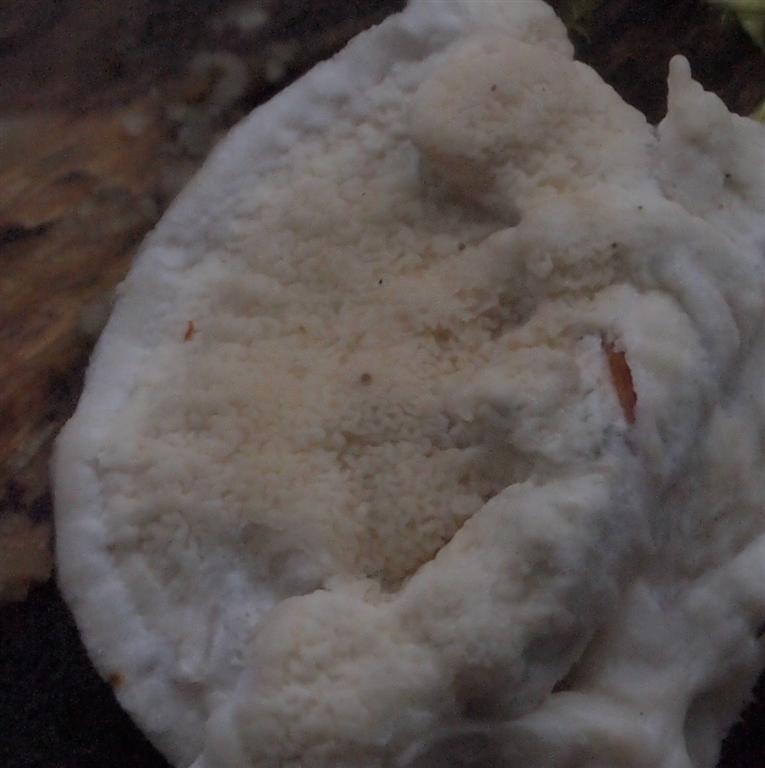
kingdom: Fungi
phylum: Basidiomycota
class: Agaricomycetes
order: Polyporales
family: Irpicaceae
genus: Byssomerulius
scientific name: Byssomerulius corium
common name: læder-åresvamp
